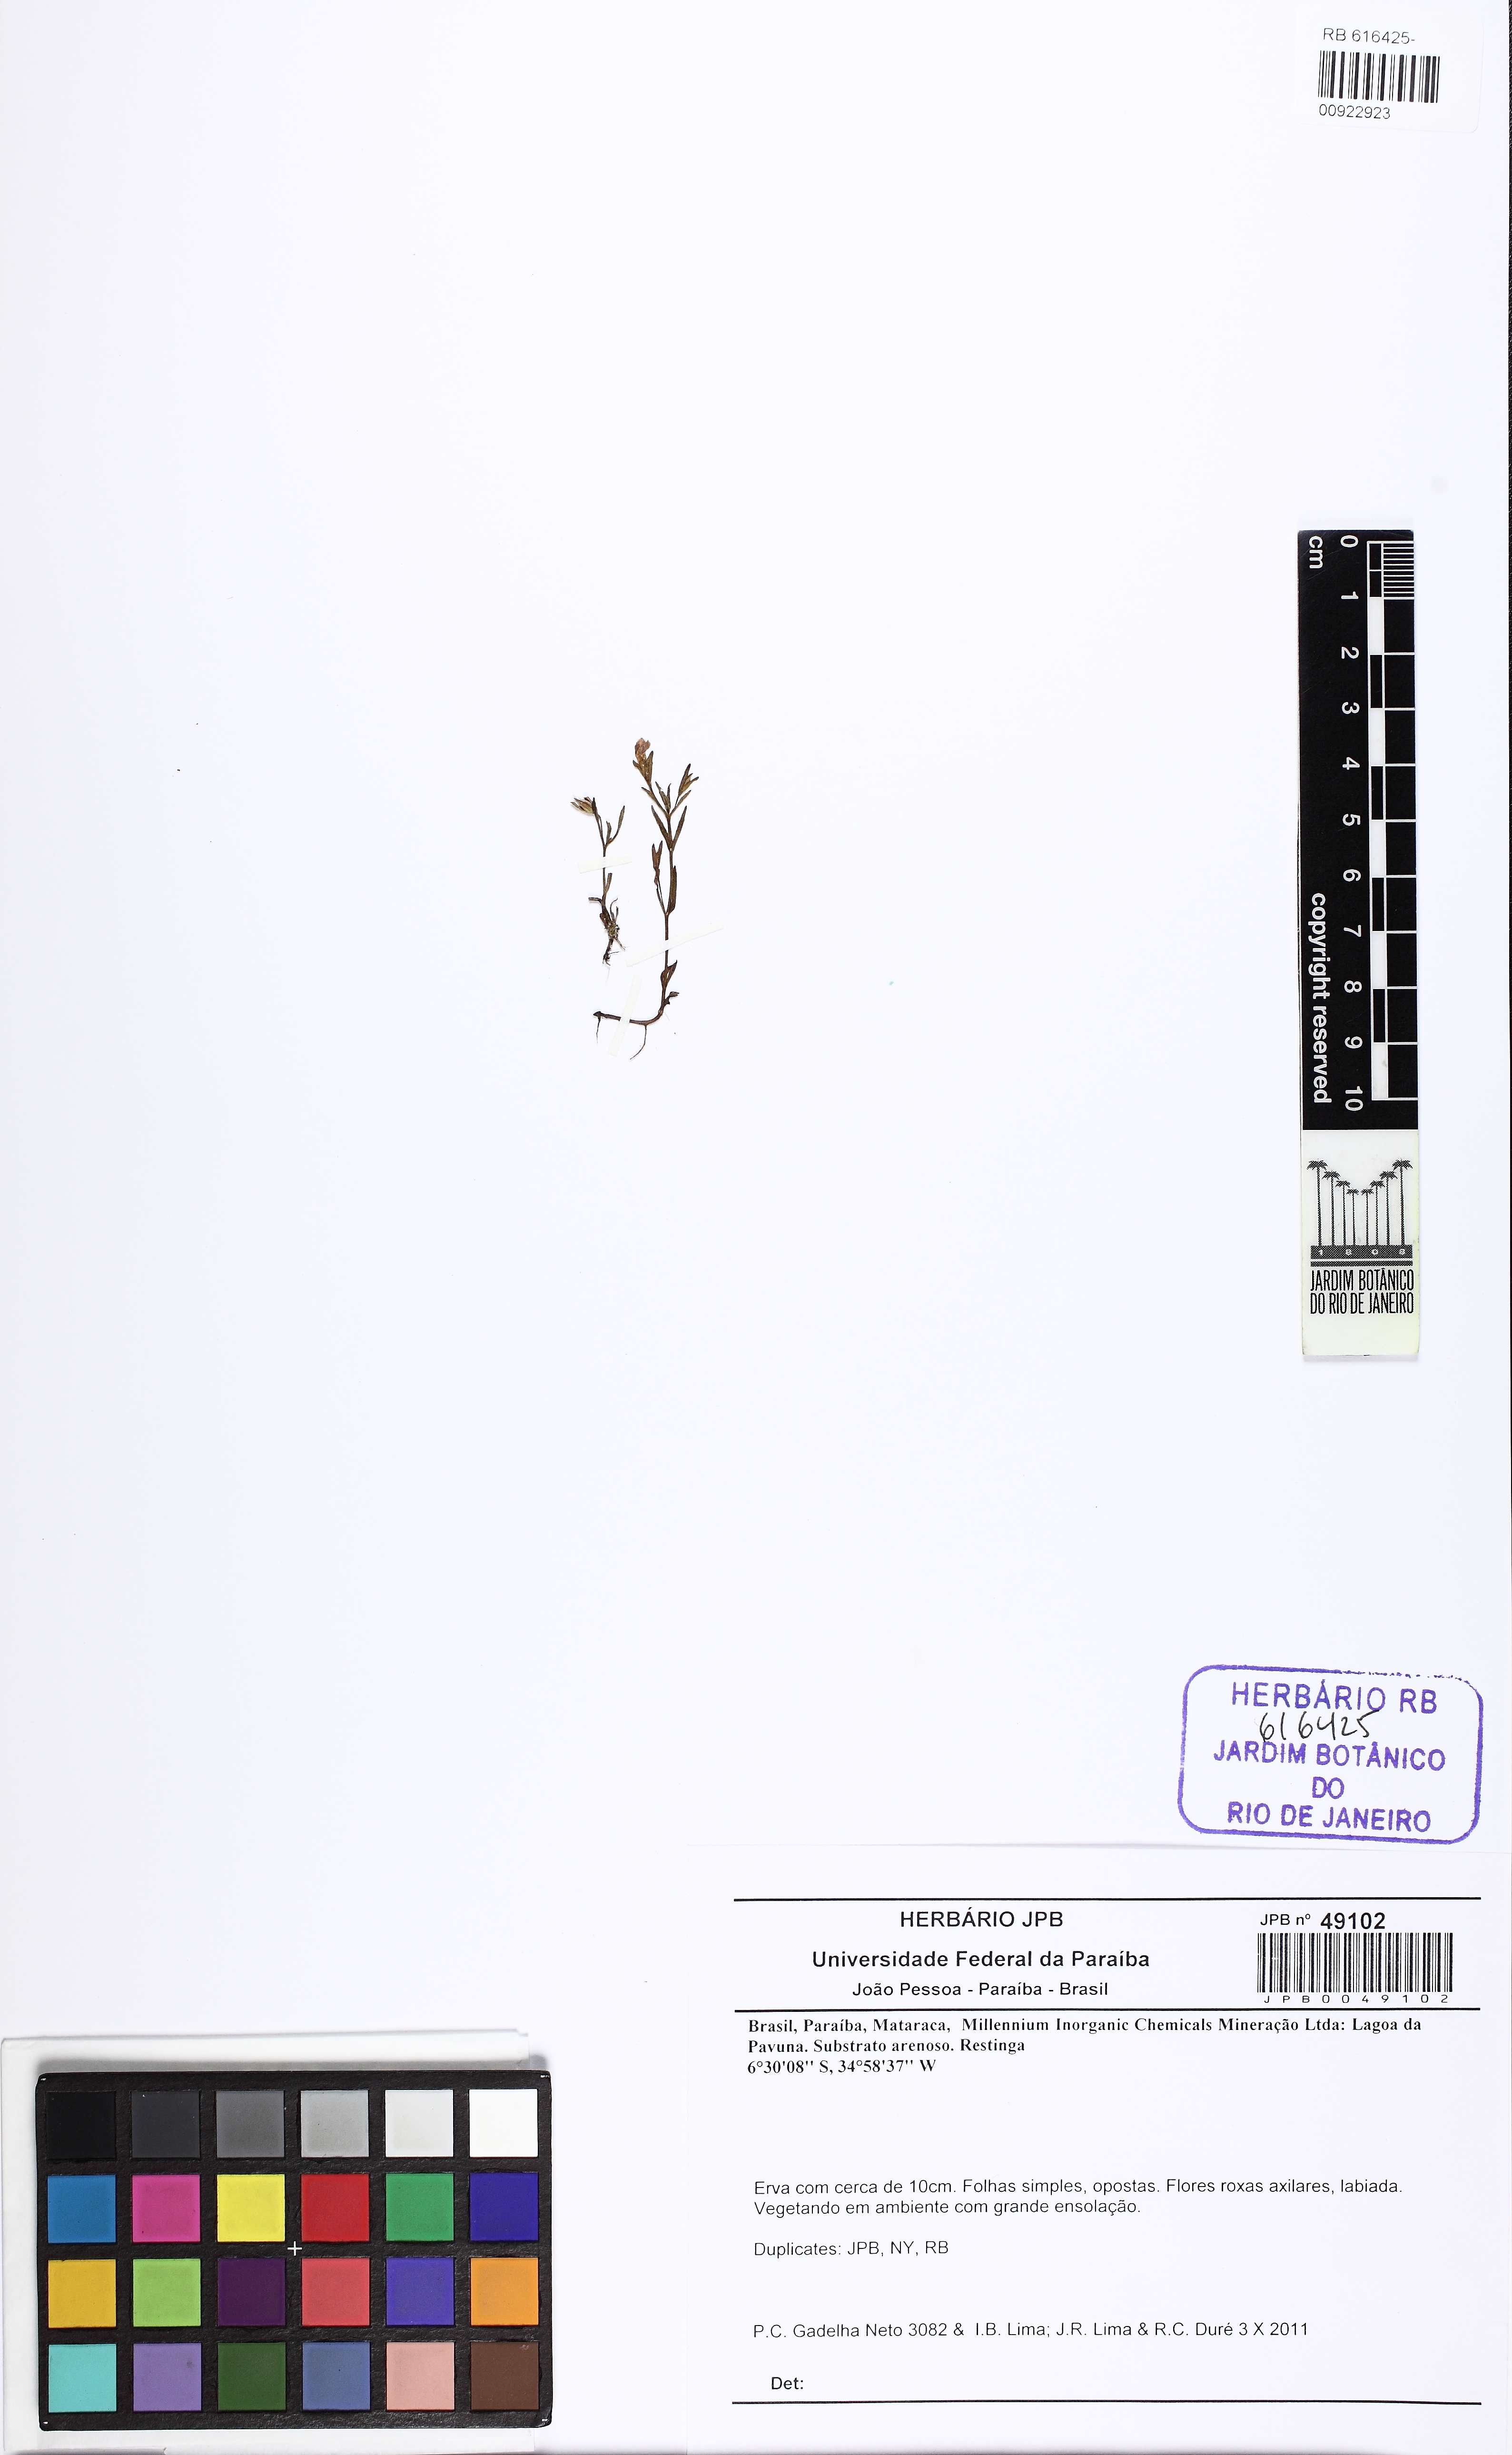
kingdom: Plantae
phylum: Tracheophyta
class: Magnoliopsida
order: Lamiales
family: Plantaginaceae
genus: Bacopa
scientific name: Bacopa
